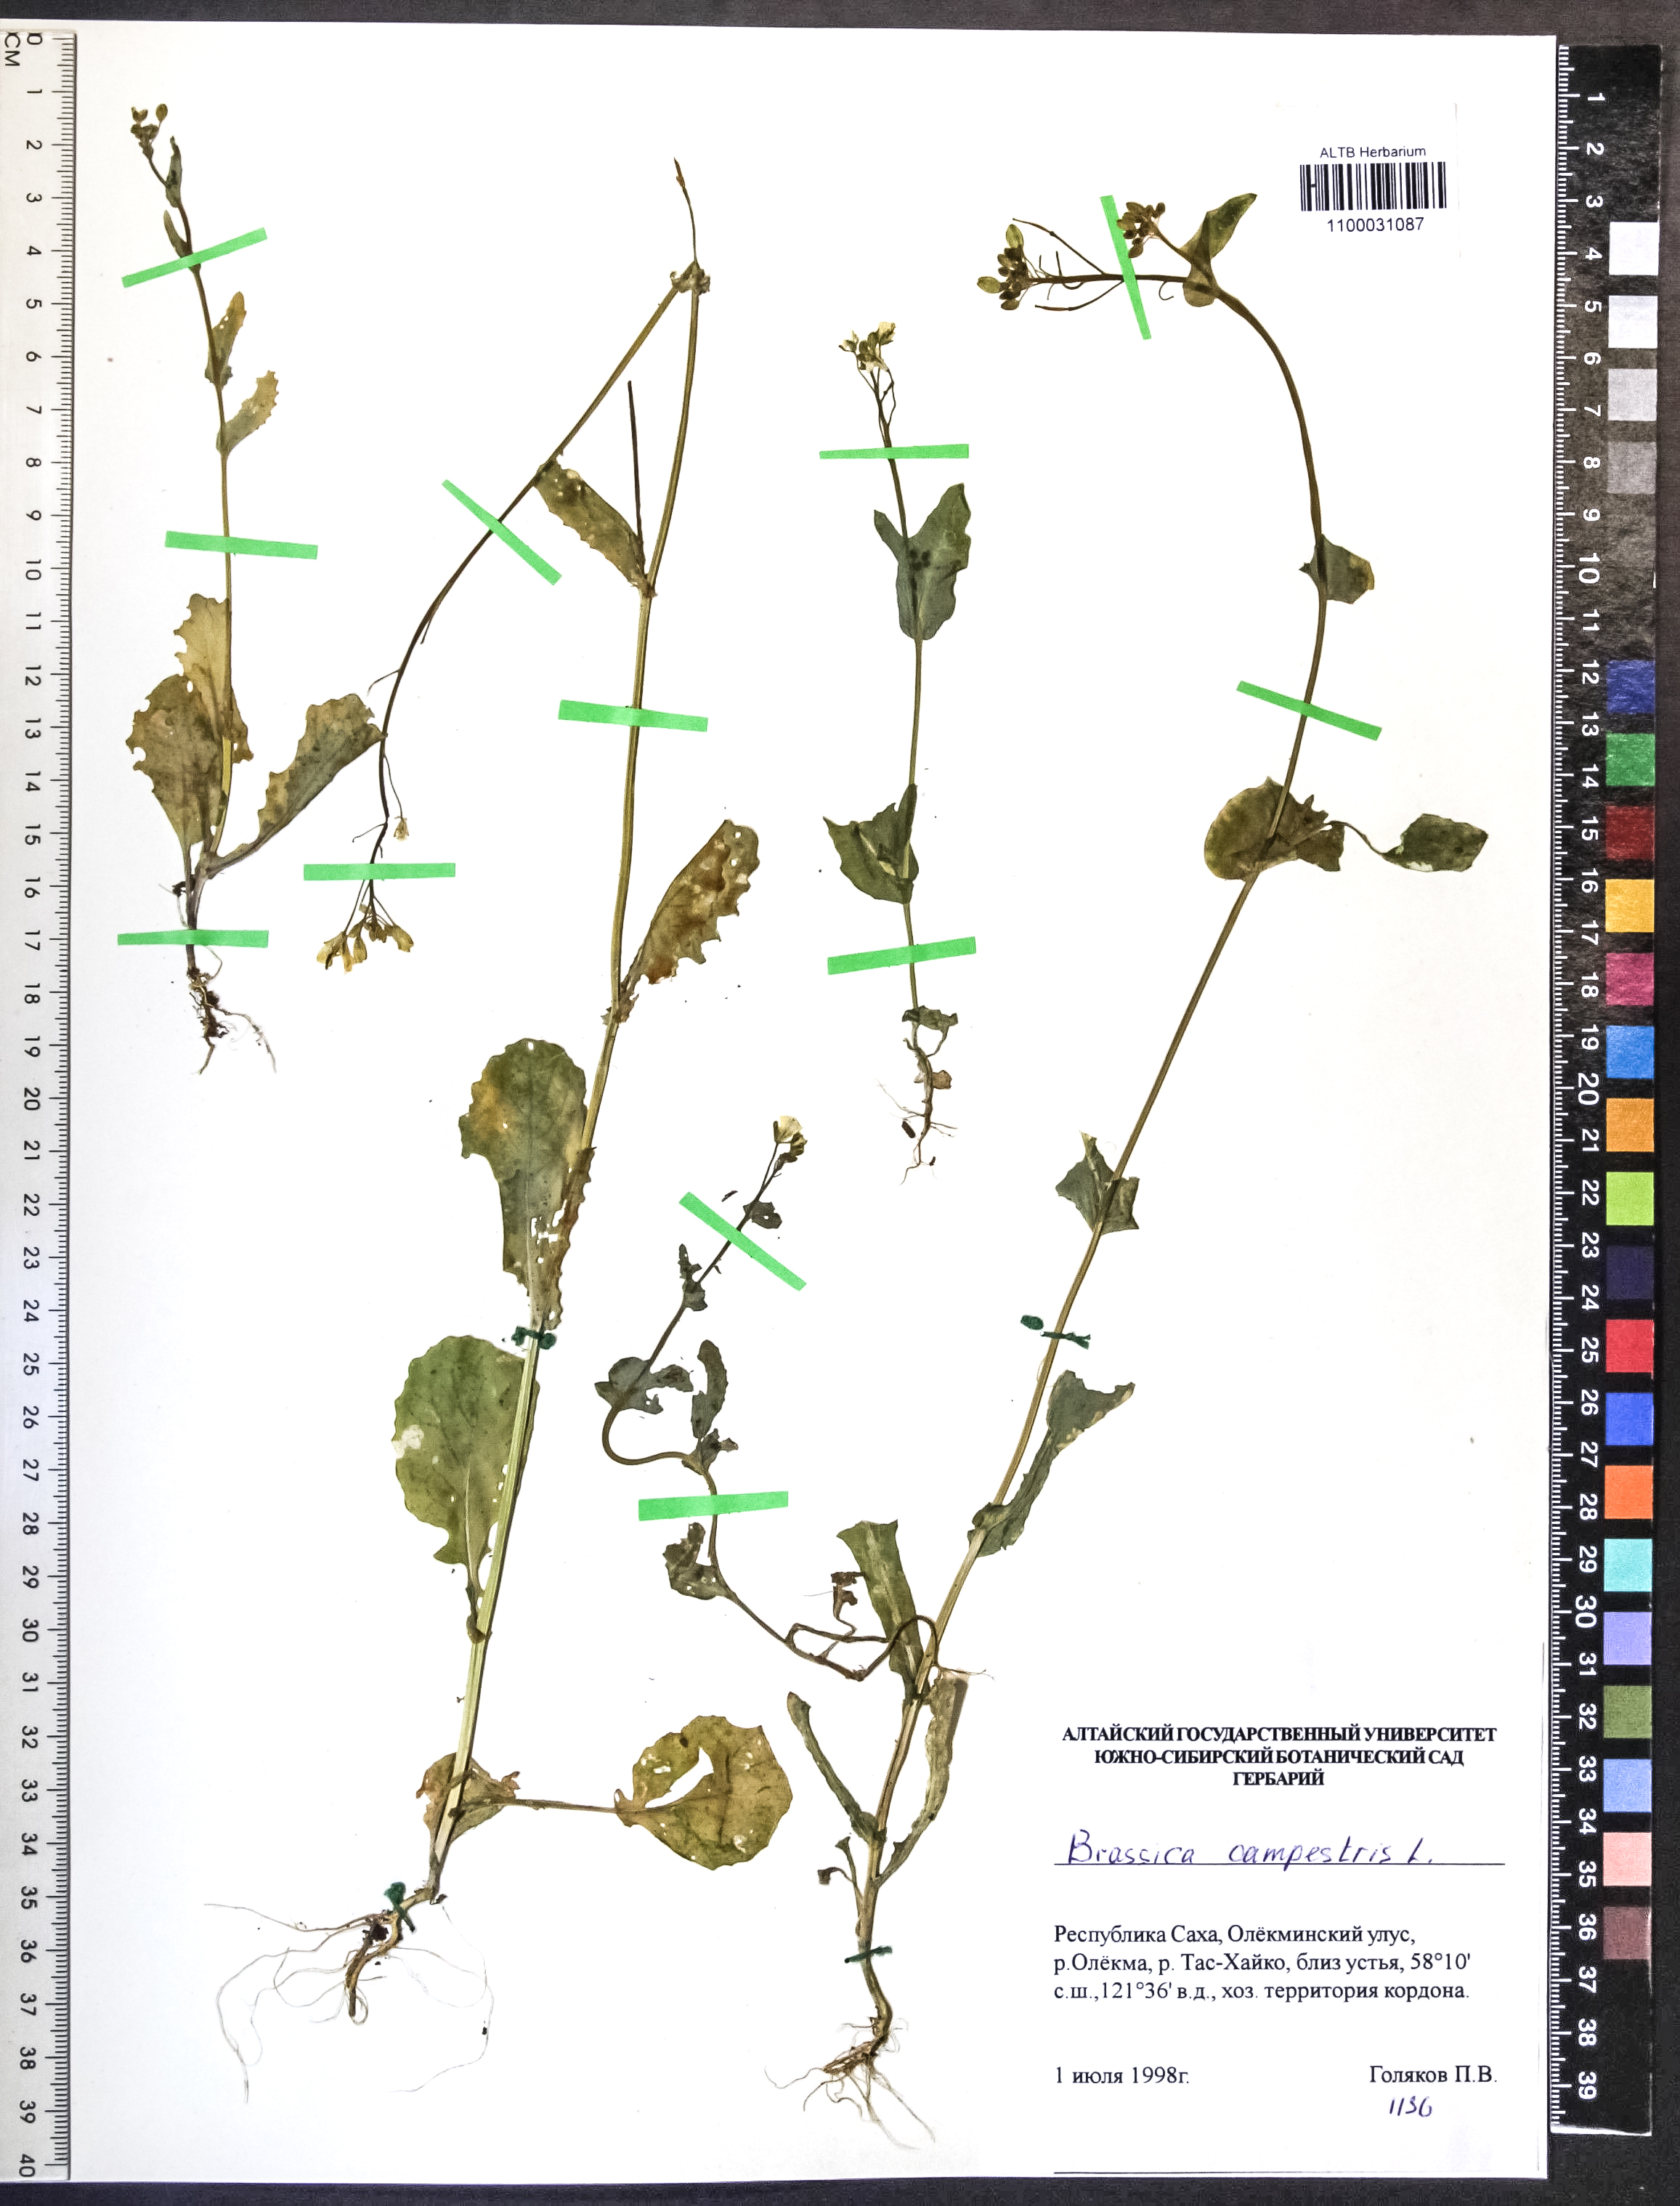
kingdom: Plantae
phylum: Tracheophyta
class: Magnoliopsida
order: Brassicales
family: Brassicaceae
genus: Brassica
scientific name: Brassica rapa
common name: Field mustard
